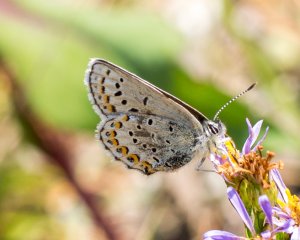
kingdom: Animalia
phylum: Arthropoda
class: Insecta
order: Lepidoptera
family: Lycaenidae
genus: Lycaeides
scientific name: Lycaeides melissa
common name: Melissa Blue
